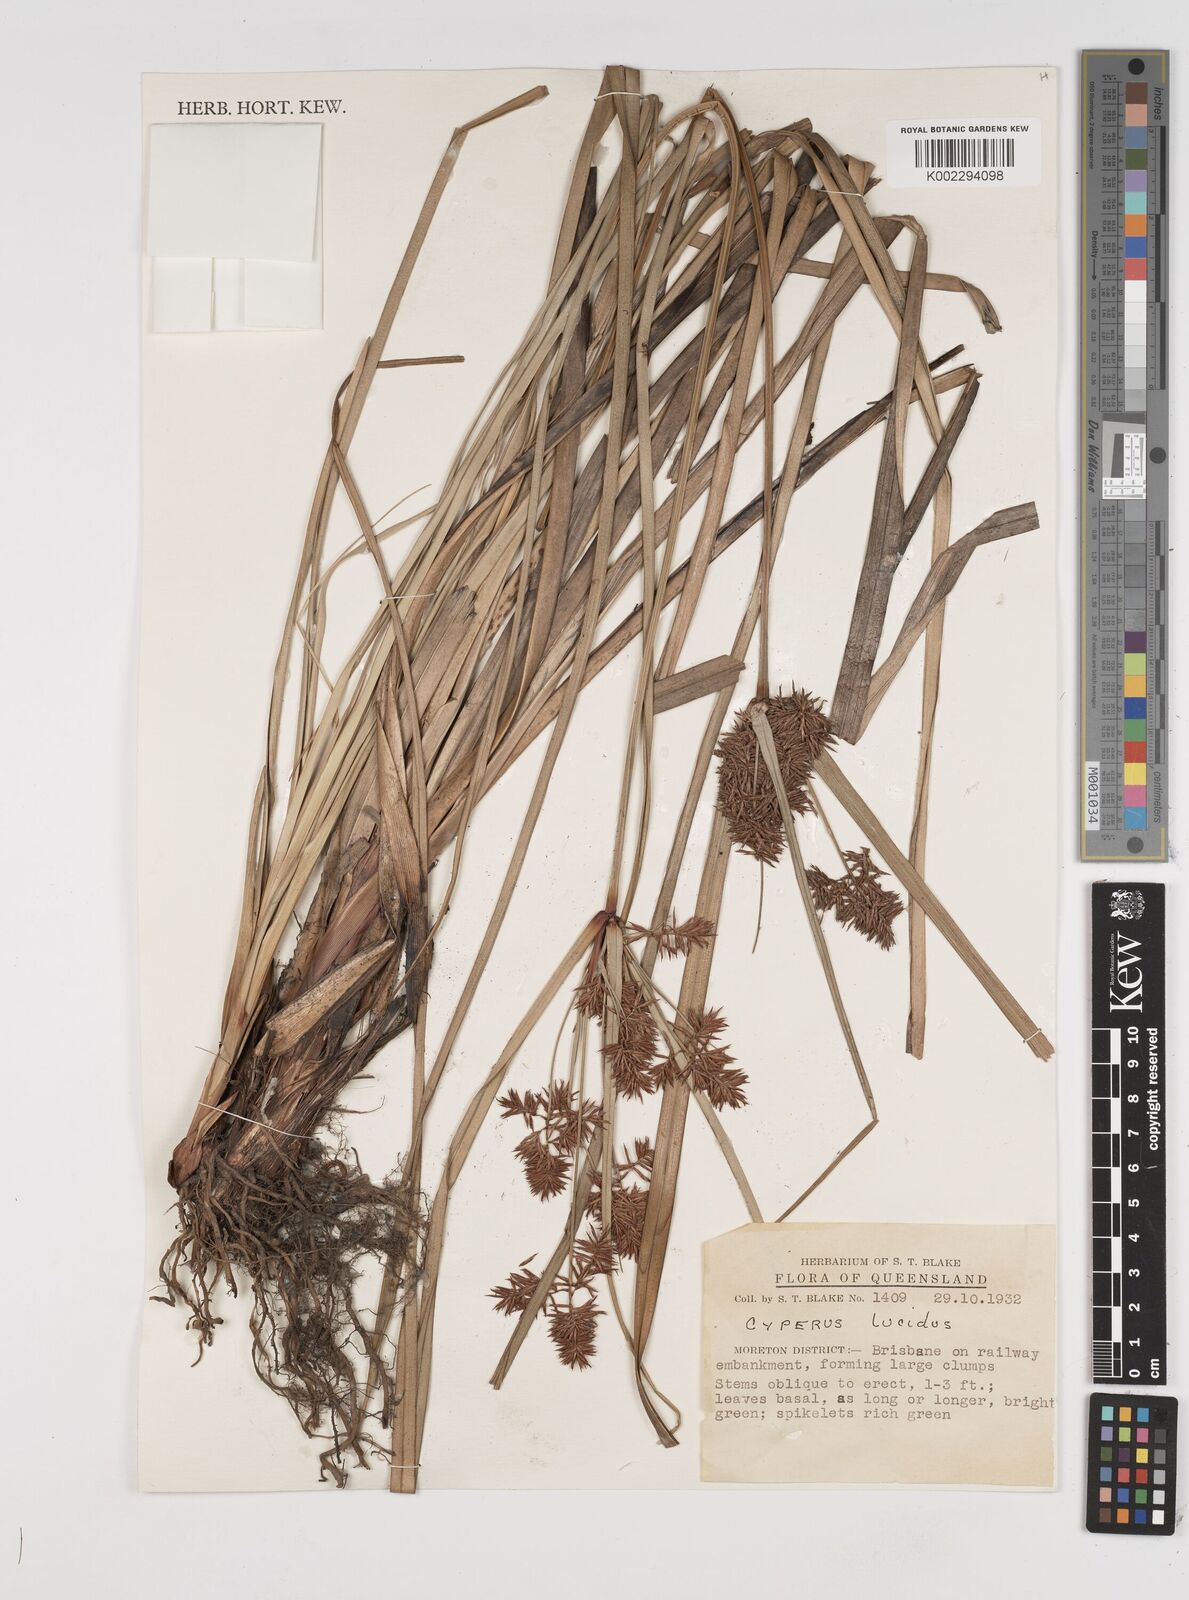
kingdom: Plantae
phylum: Tracheophyta
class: Liliopsida
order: Poales
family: Cyperaceae
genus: Cyperus
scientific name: Cyperus lucidus
